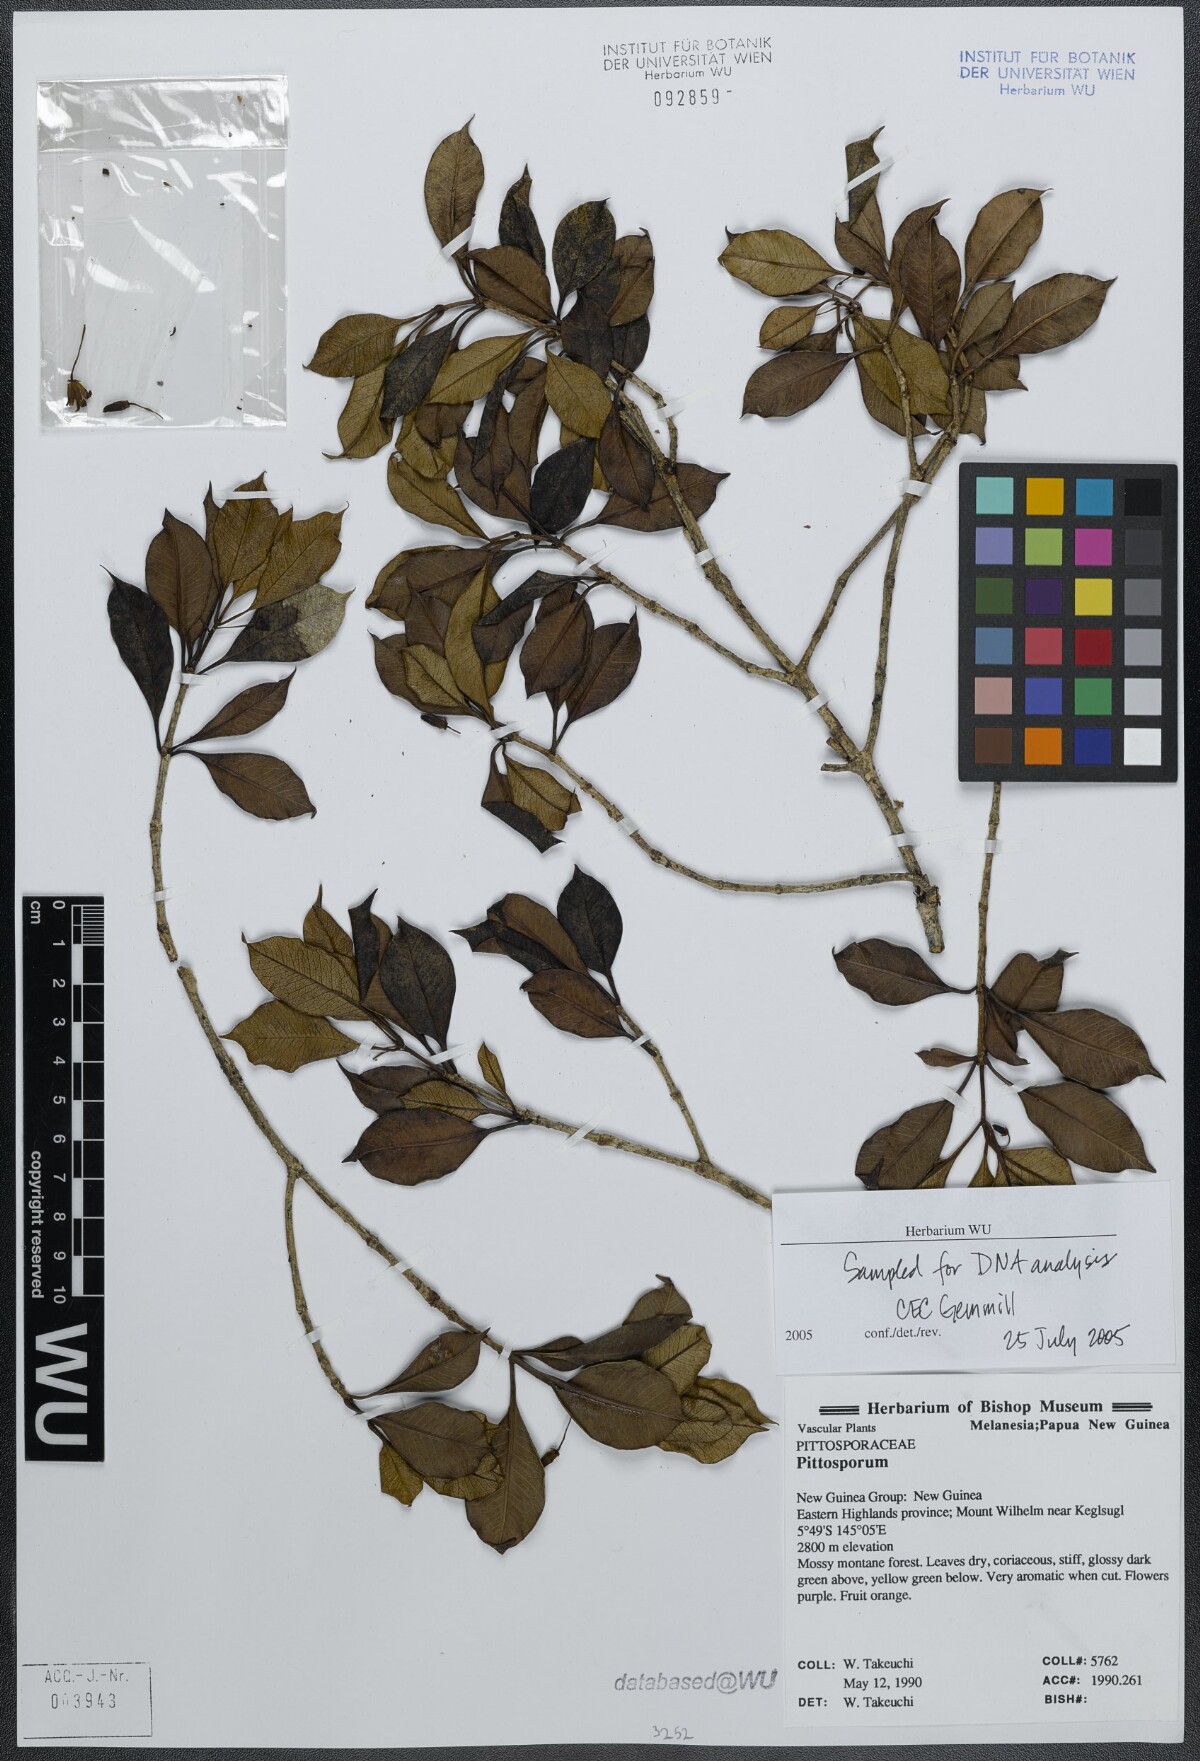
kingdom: Plantae
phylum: Tracheophyta
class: Magnoliopsida
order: Apiales
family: Pittosporaceae
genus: Pittosporum
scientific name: Pittosporum
